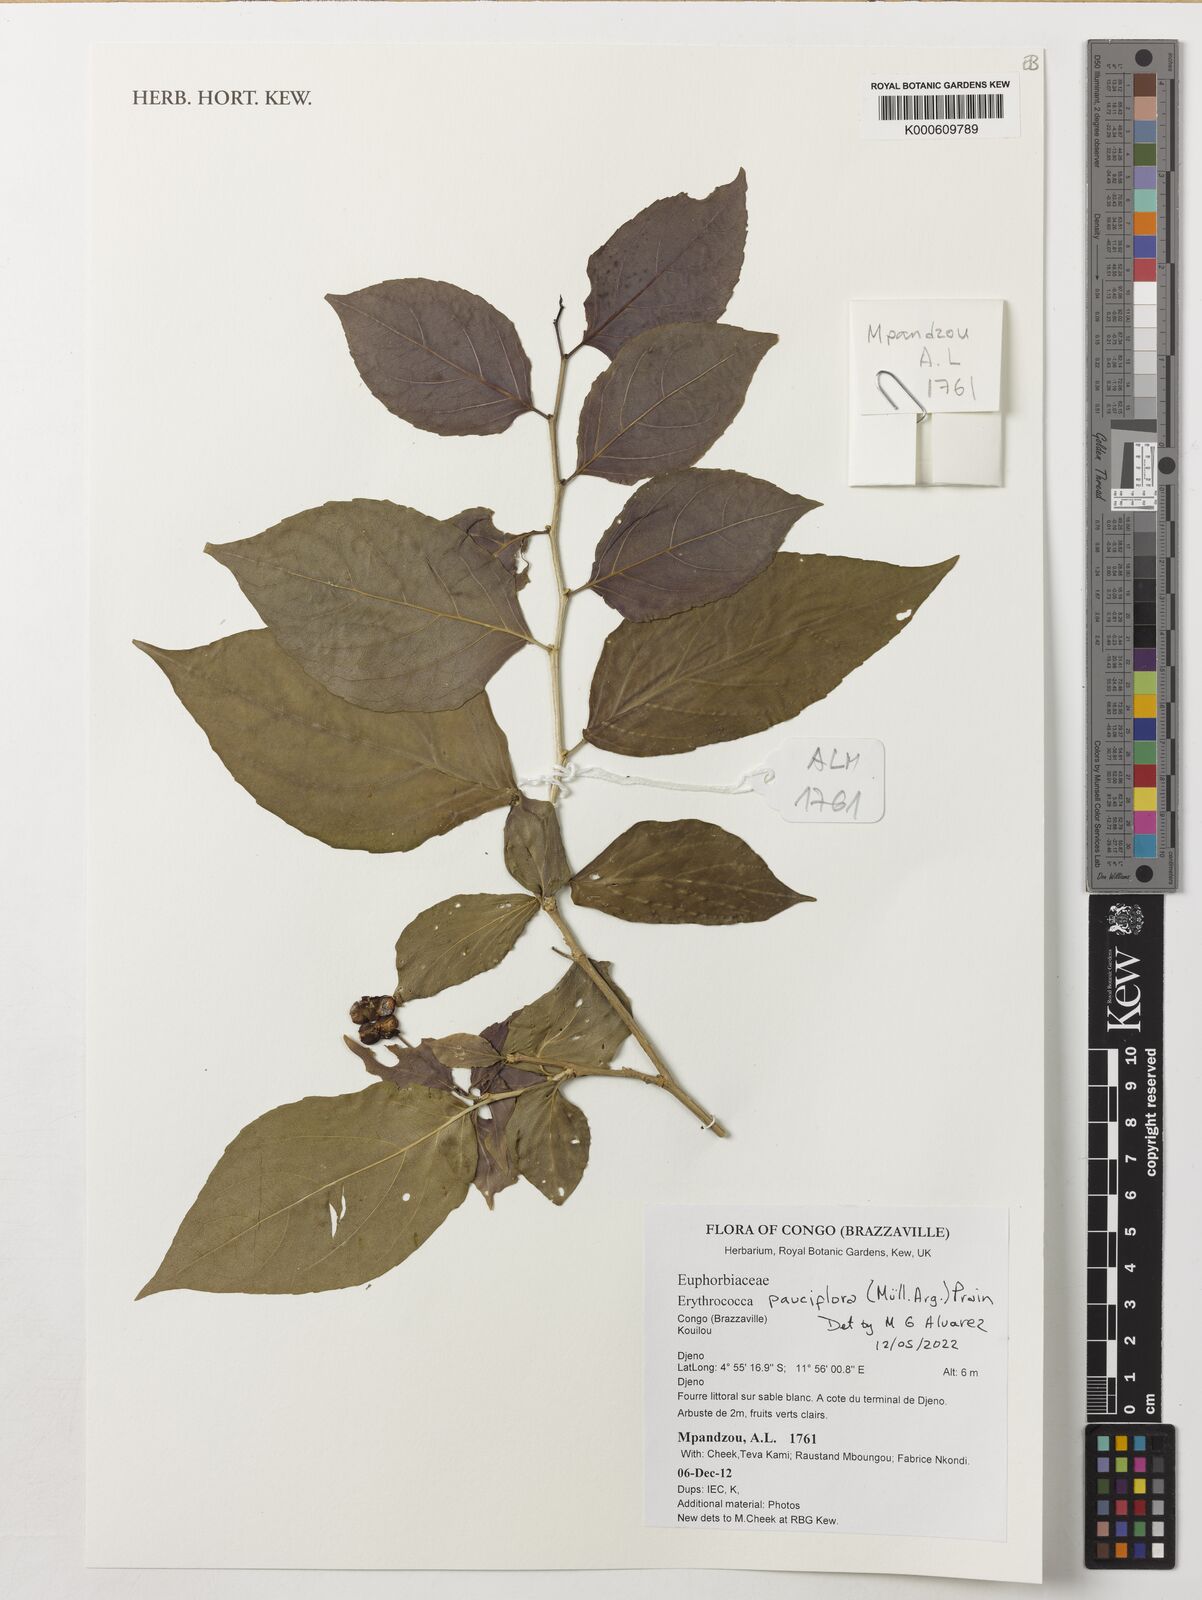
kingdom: Plantae
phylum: Tracheophyta
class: Magnoliopsida
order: Malpighiales
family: Euphorbiaceae
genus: Erythrococca
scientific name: Erythrococca pauciflora
